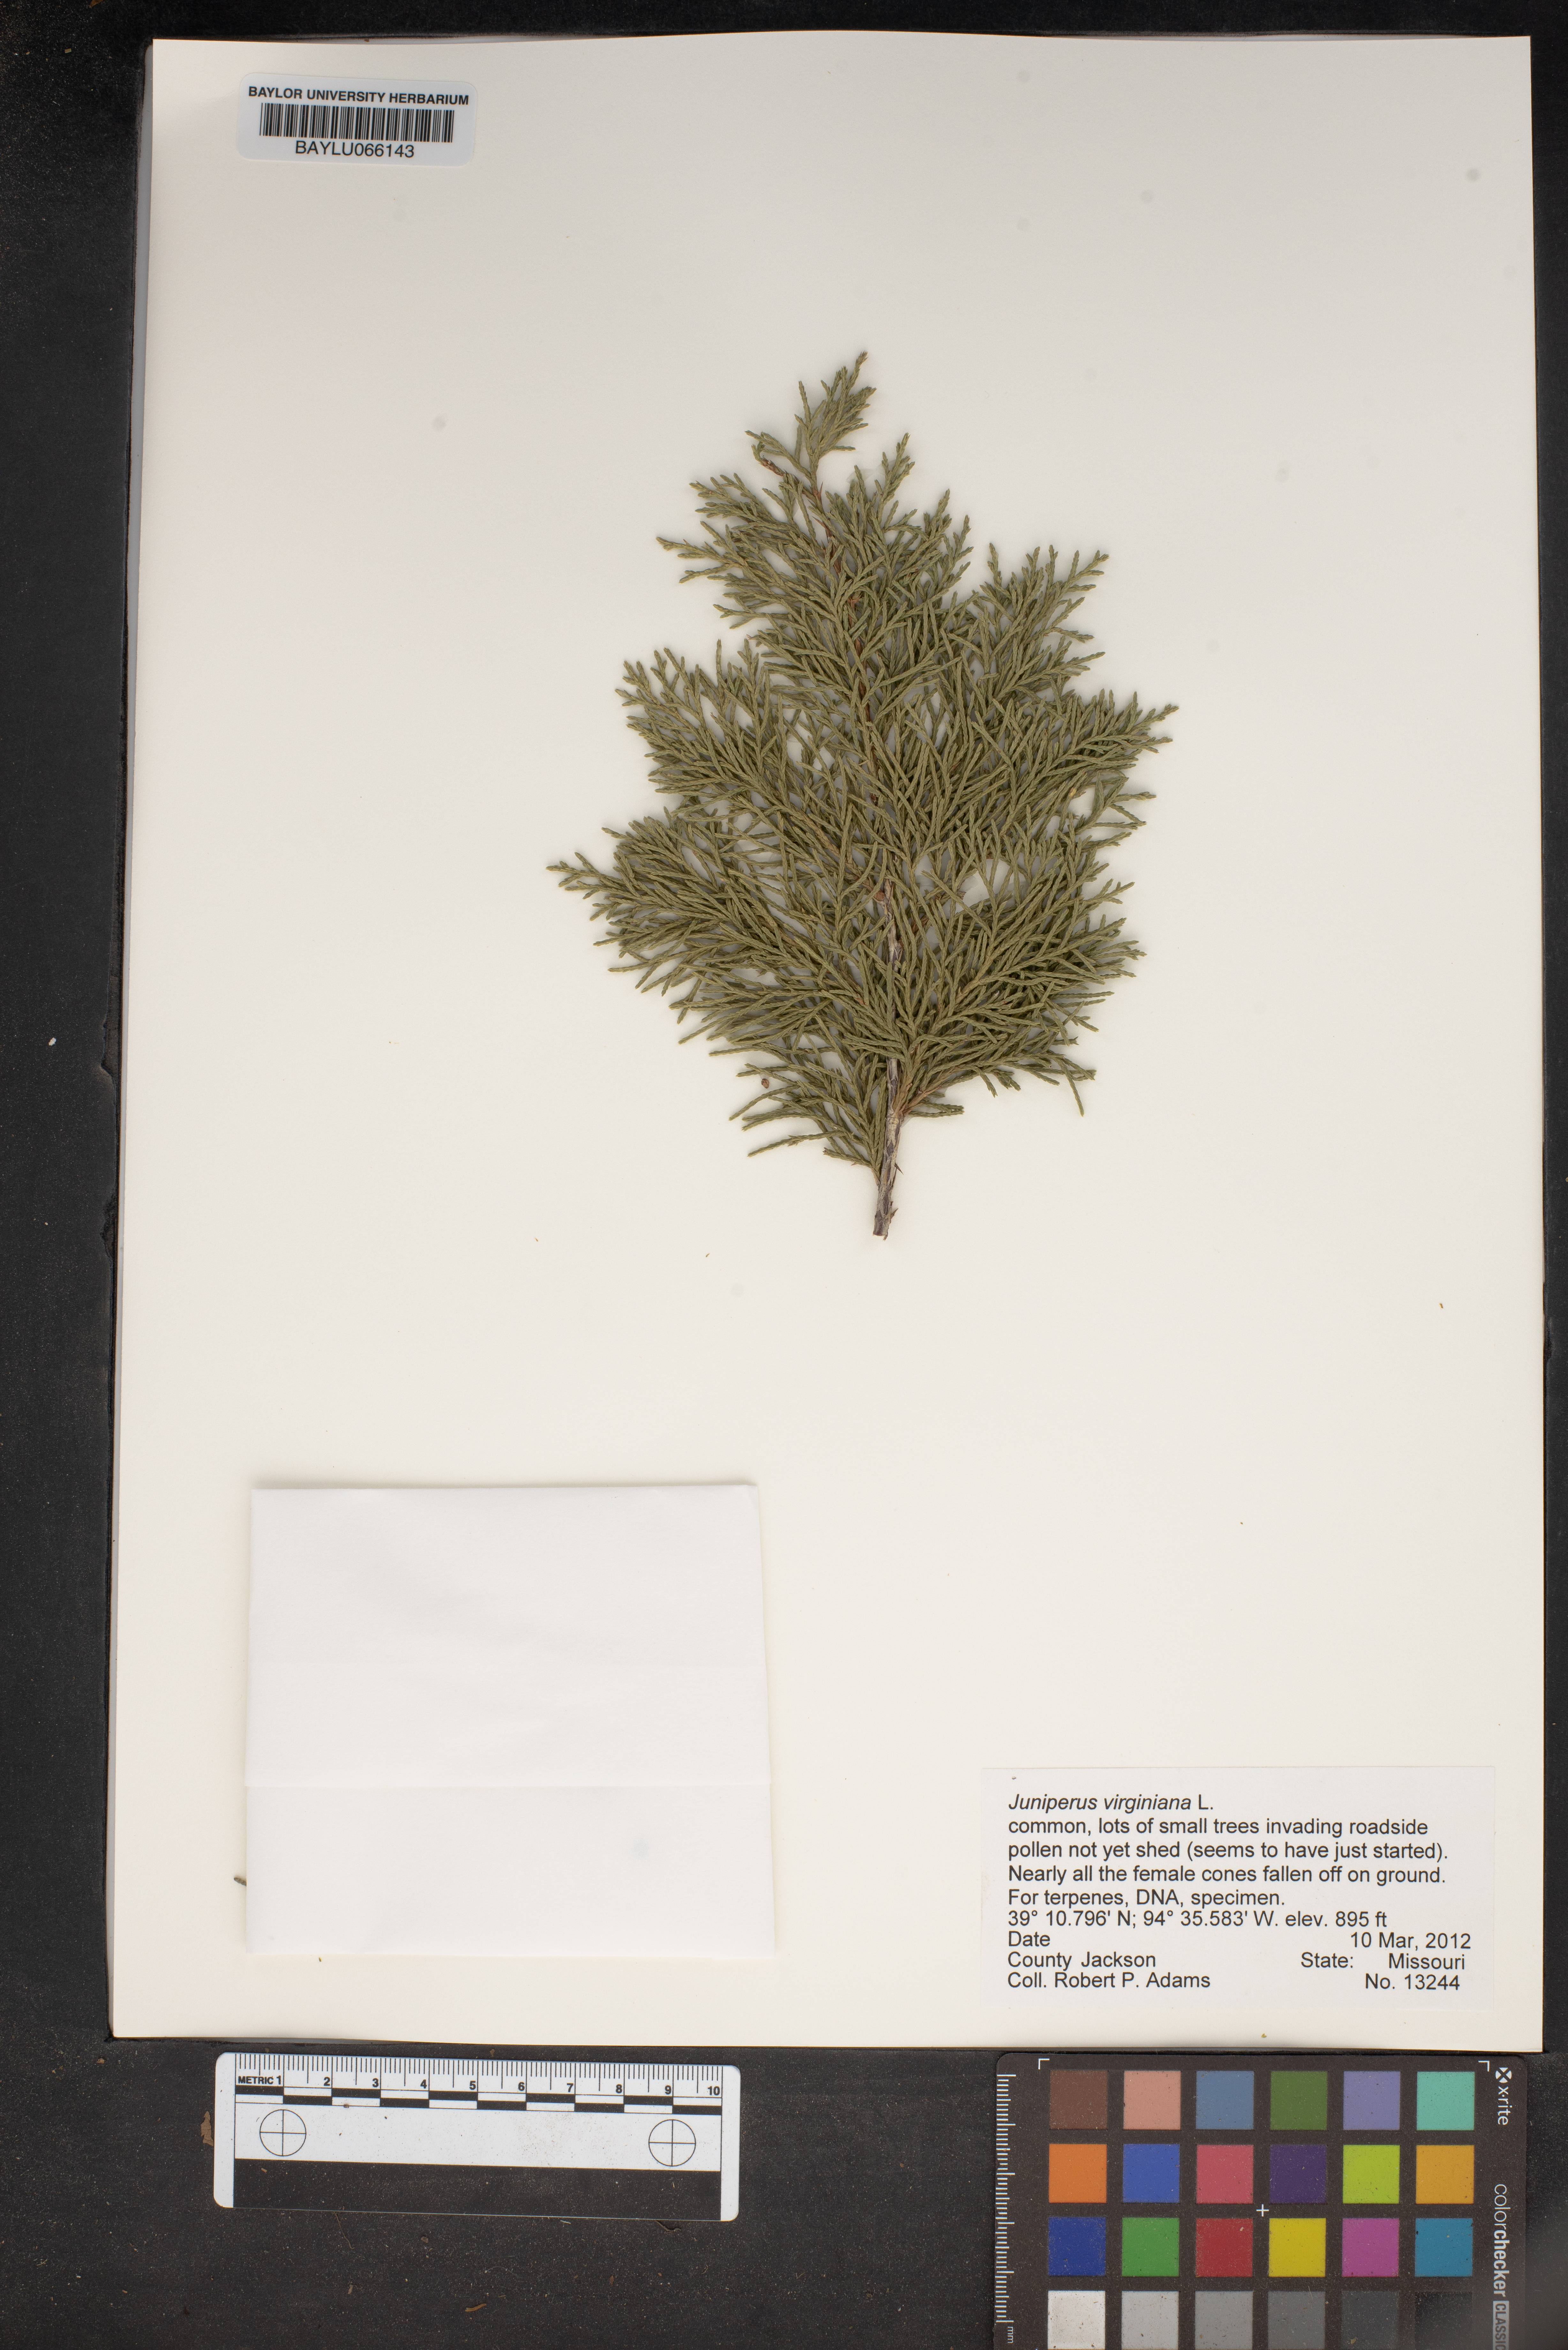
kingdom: Plantae
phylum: Tracheophyta
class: Pinopsida
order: Pinales
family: Cupressaceae
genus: Juniperus
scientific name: Juniperus virginiana
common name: Red juniper
